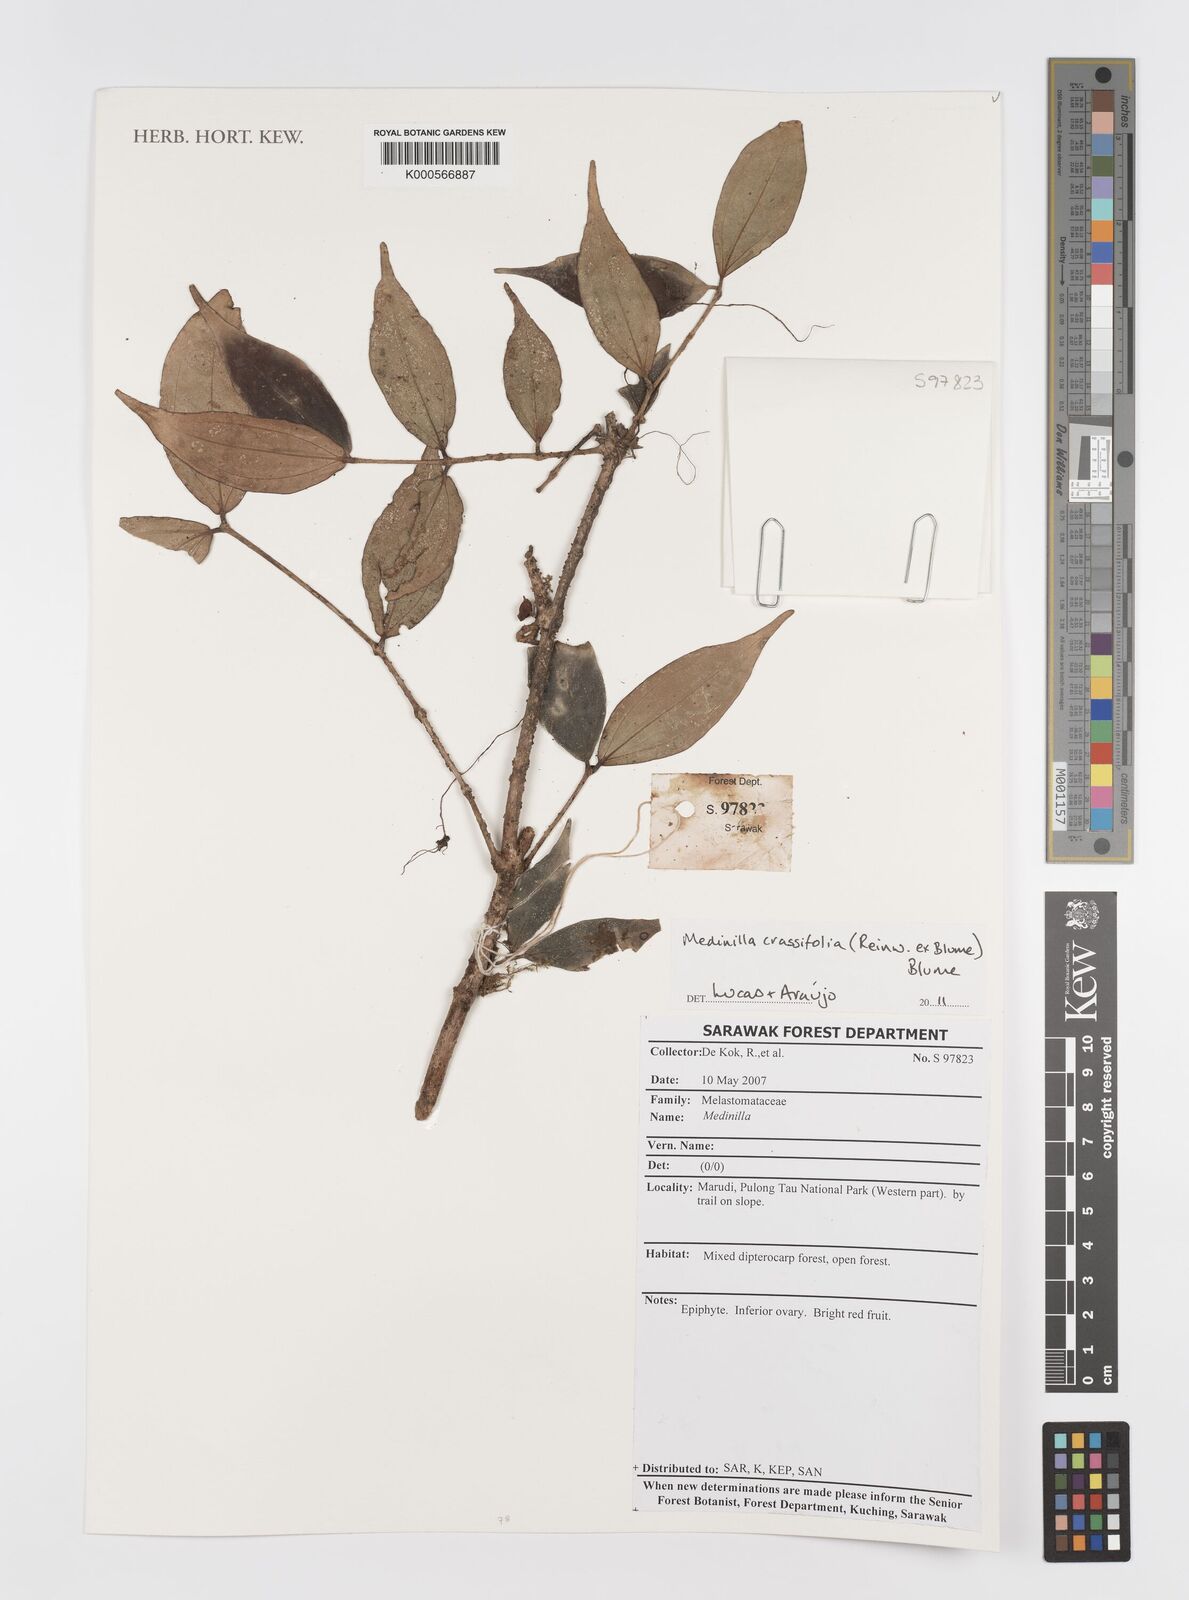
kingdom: Plantae
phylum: Tracheophyta
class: Magnoliopsida
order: Myrtales
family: Melastomataceae
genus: Medinilla
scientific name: Medinilla crassifolia
